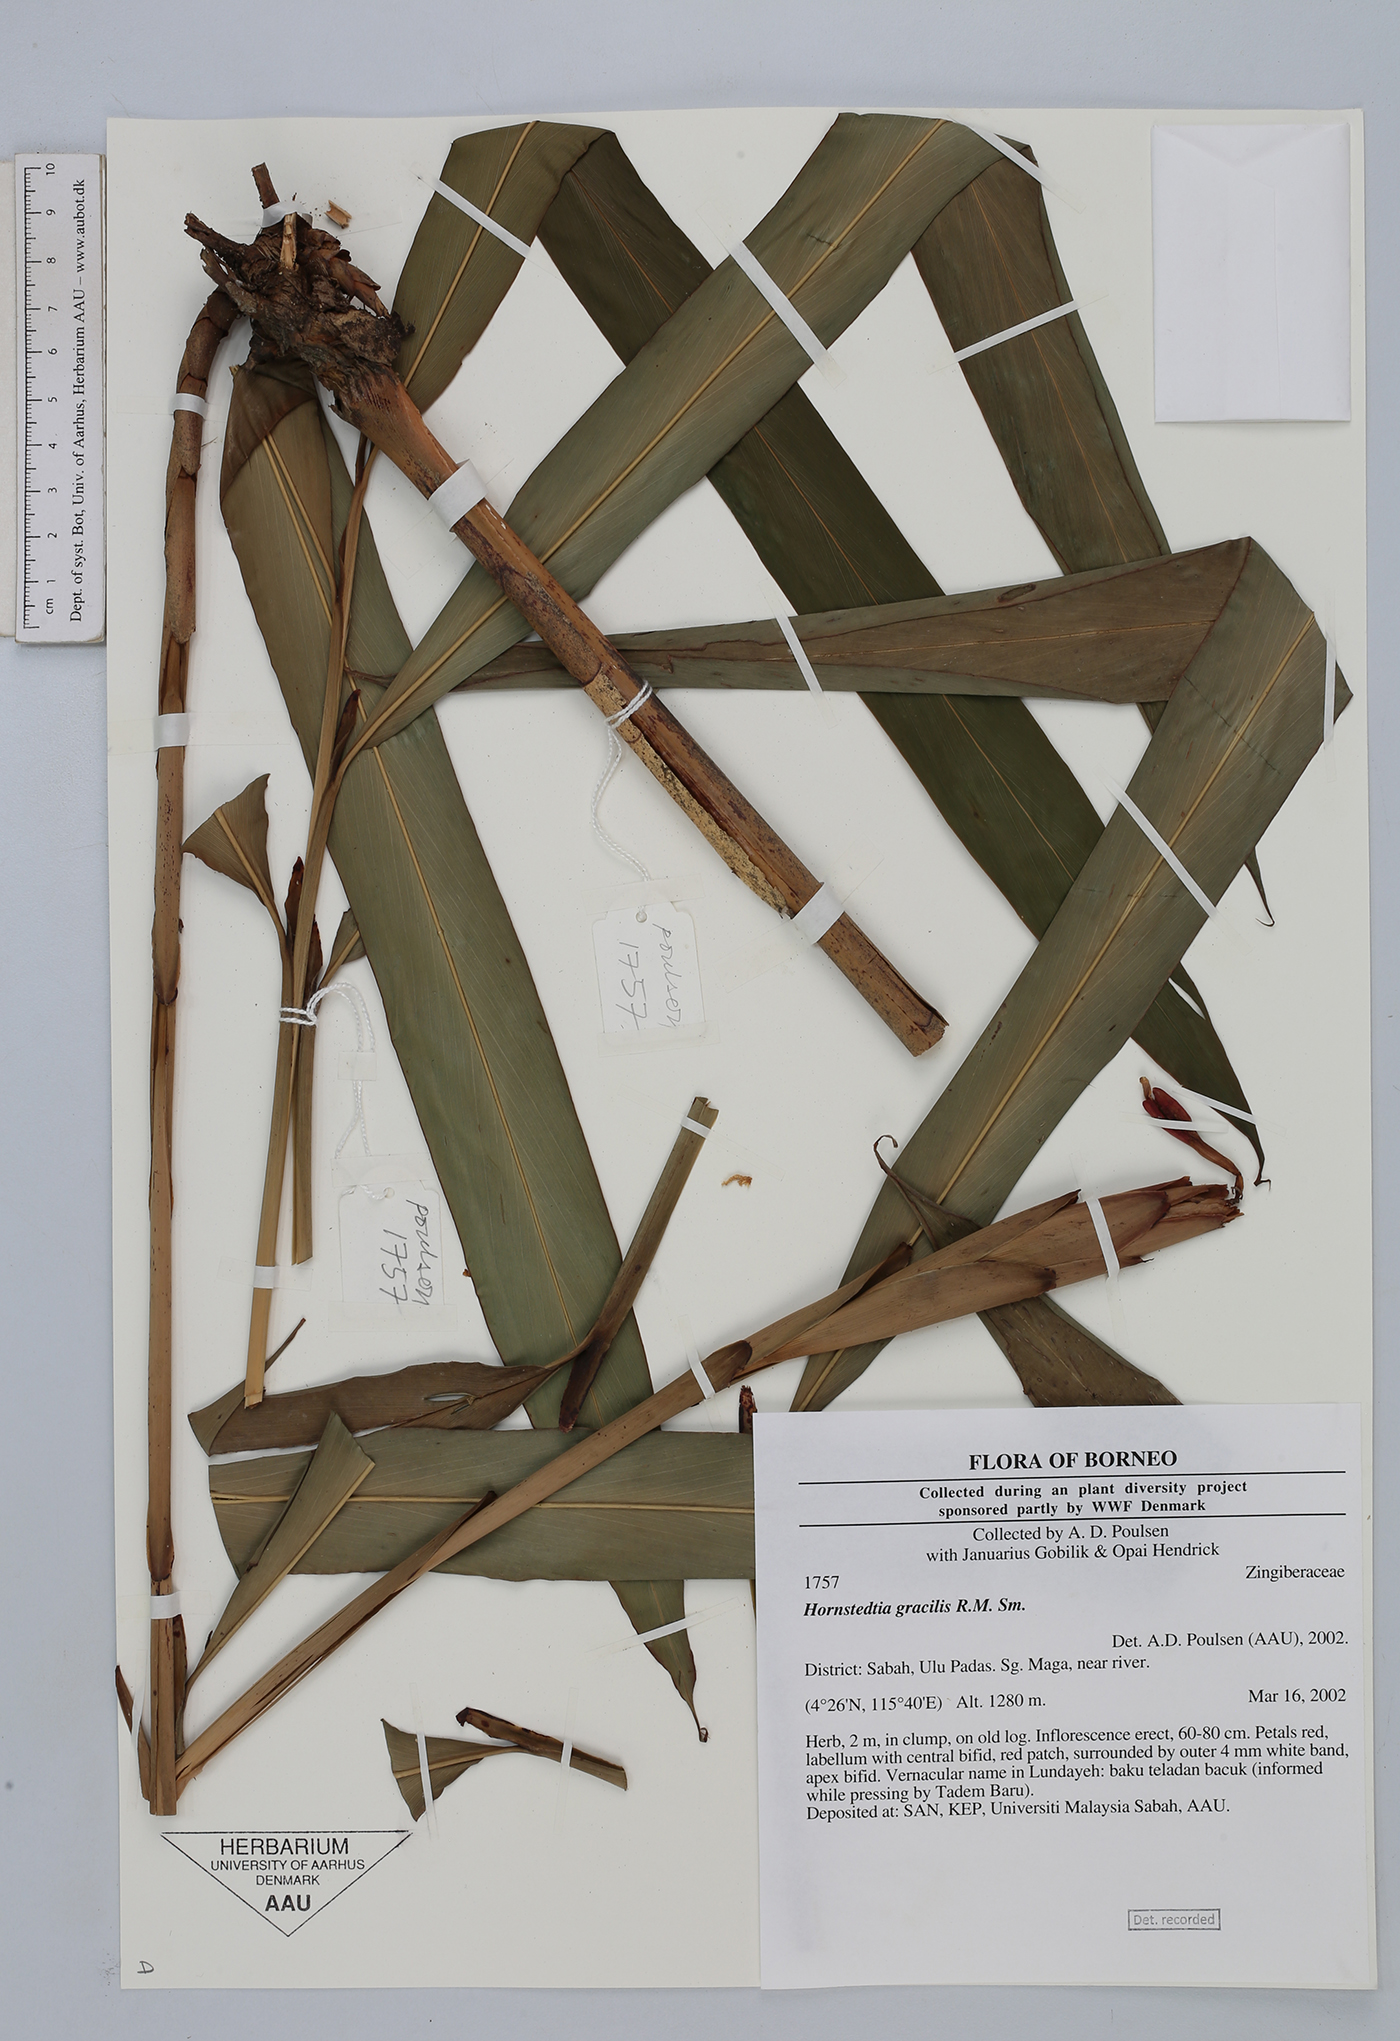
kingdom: Plantae
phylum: Tracheophyta
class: Liliopsida
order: Zingiberales
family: Zingiberaceae
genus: Hornstedtia
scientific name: Hornstedtia gracilis
